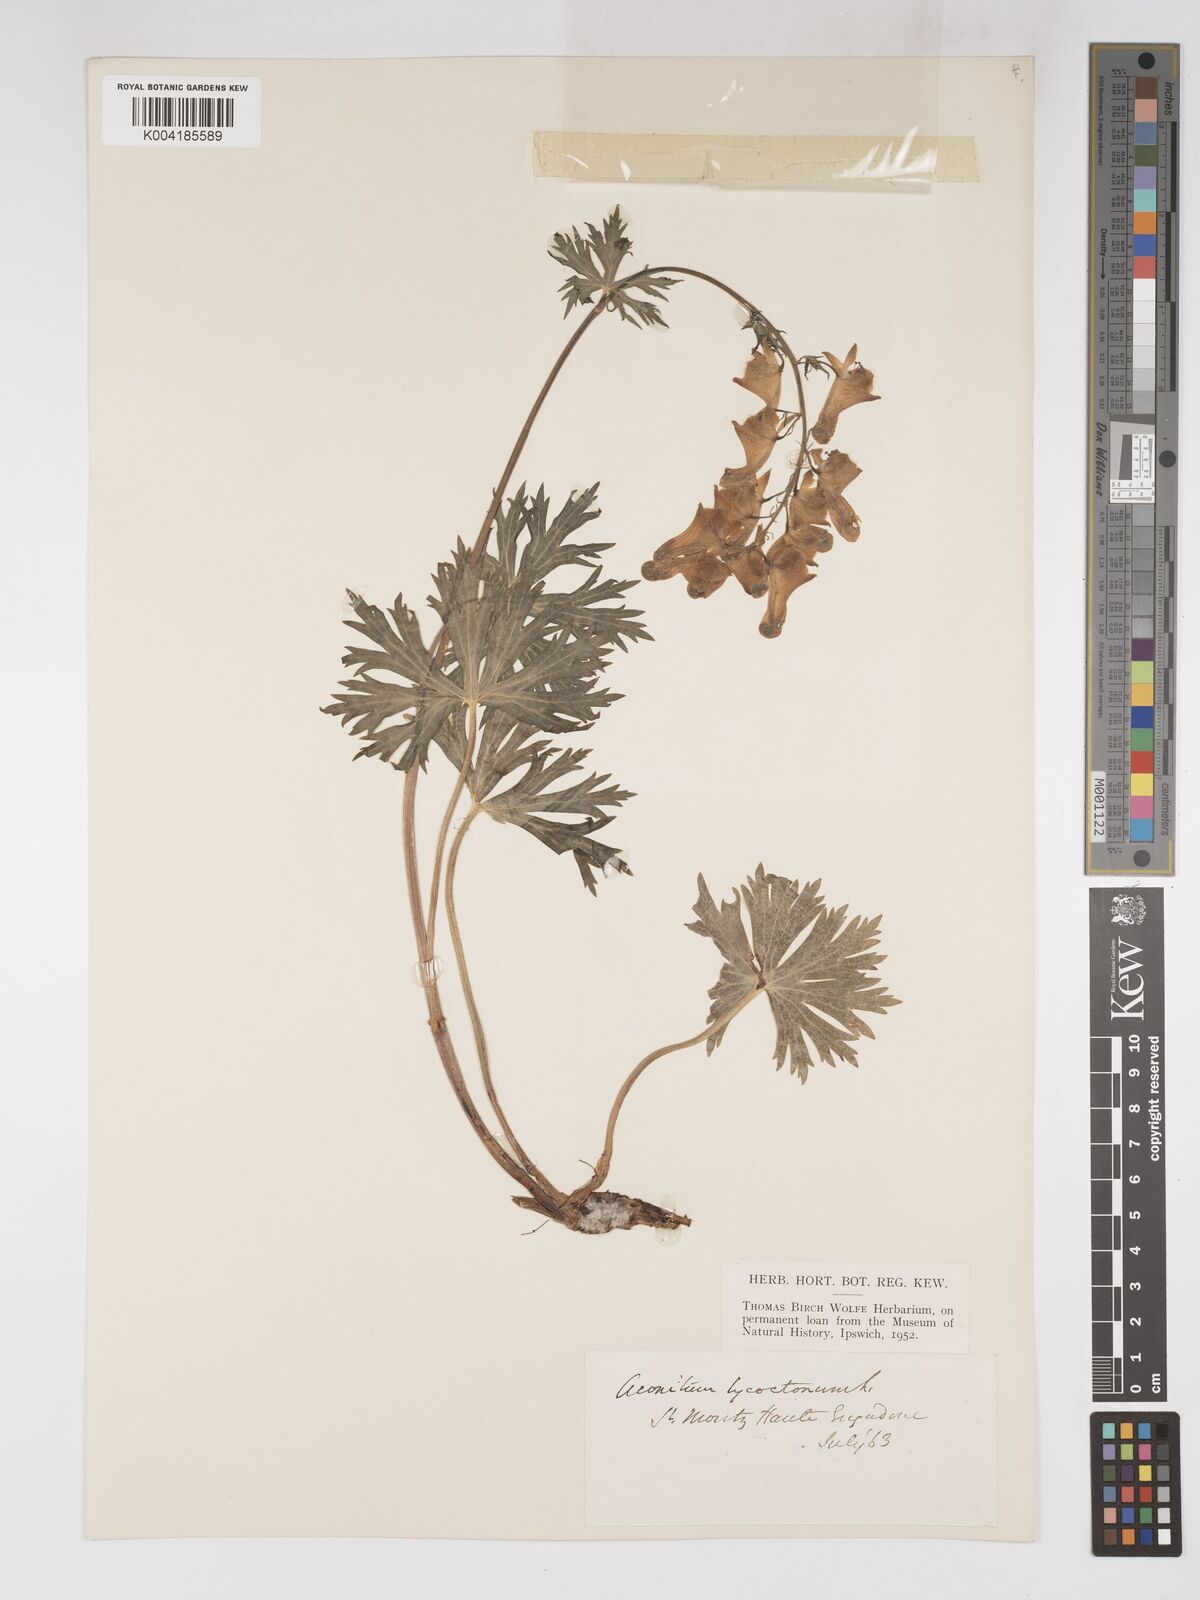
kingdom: Plantae
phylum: Tracheophyta
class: Magnoliopsida
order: Ranunculales
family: Ranunculaceae
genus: Aconitum
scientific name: Aconitum lycoctonum
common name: Wolf's-bane
